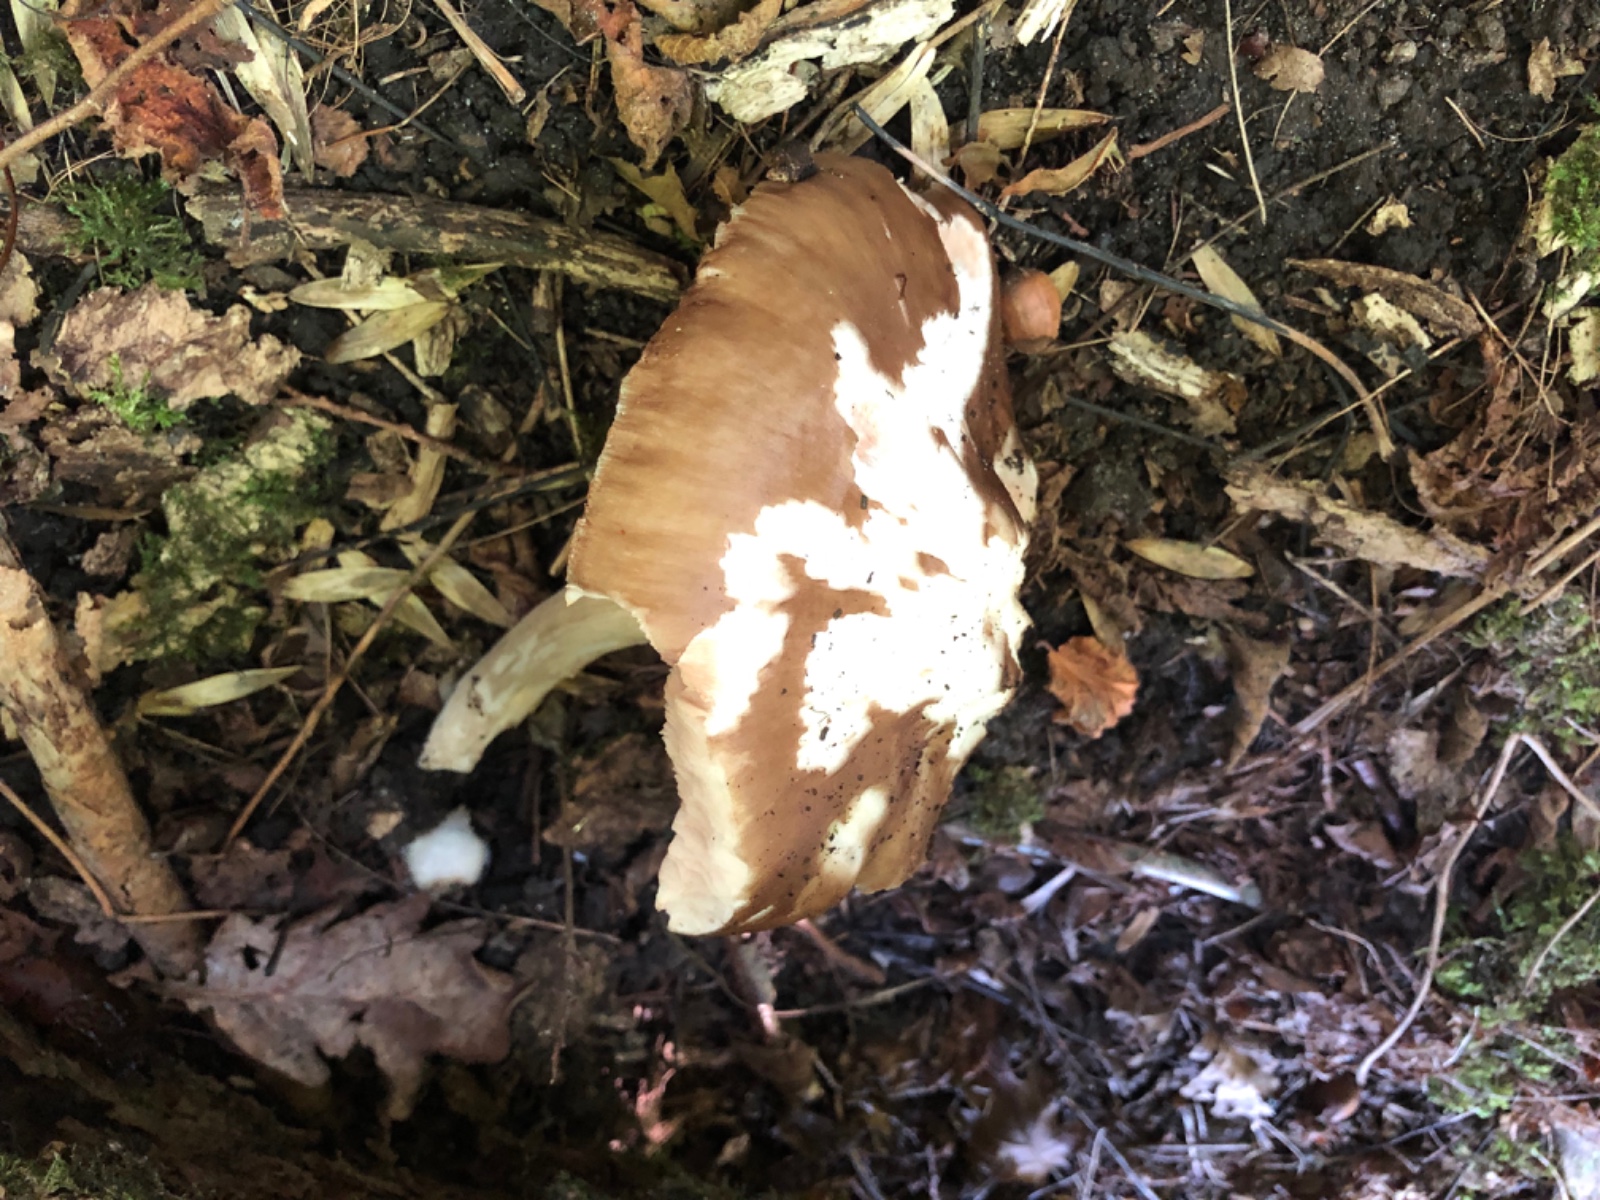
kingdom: Fungi
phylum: Basidiomycota
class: Agaricomycetes
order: Agaricales
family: Pluteaceae
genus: Pluteus
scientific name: Pluteus cervinus
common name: sodfarvet skærmhat
